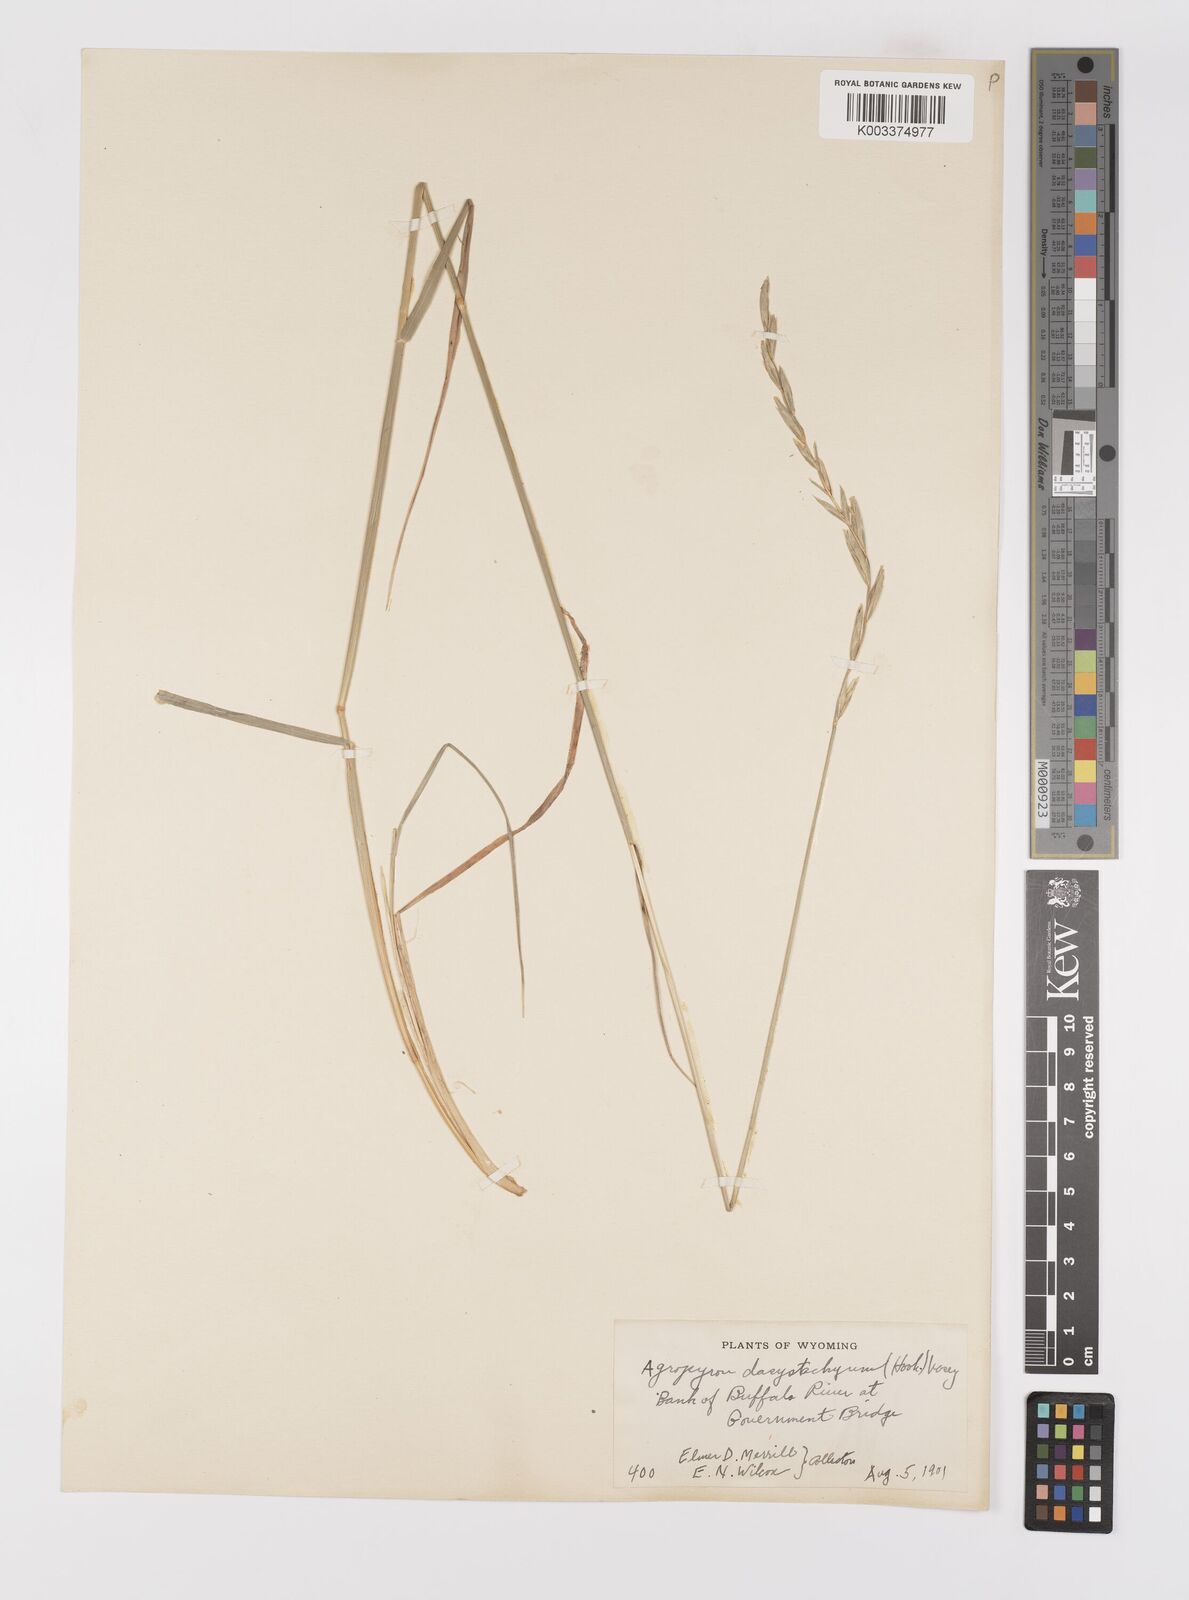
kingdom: Plantae
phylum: Tracheophyta
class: Liliopsida
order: Poales
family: Poaceae
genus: Elymus
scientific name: Elymus lanceolatus
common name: Thick-spike wheatgrass
